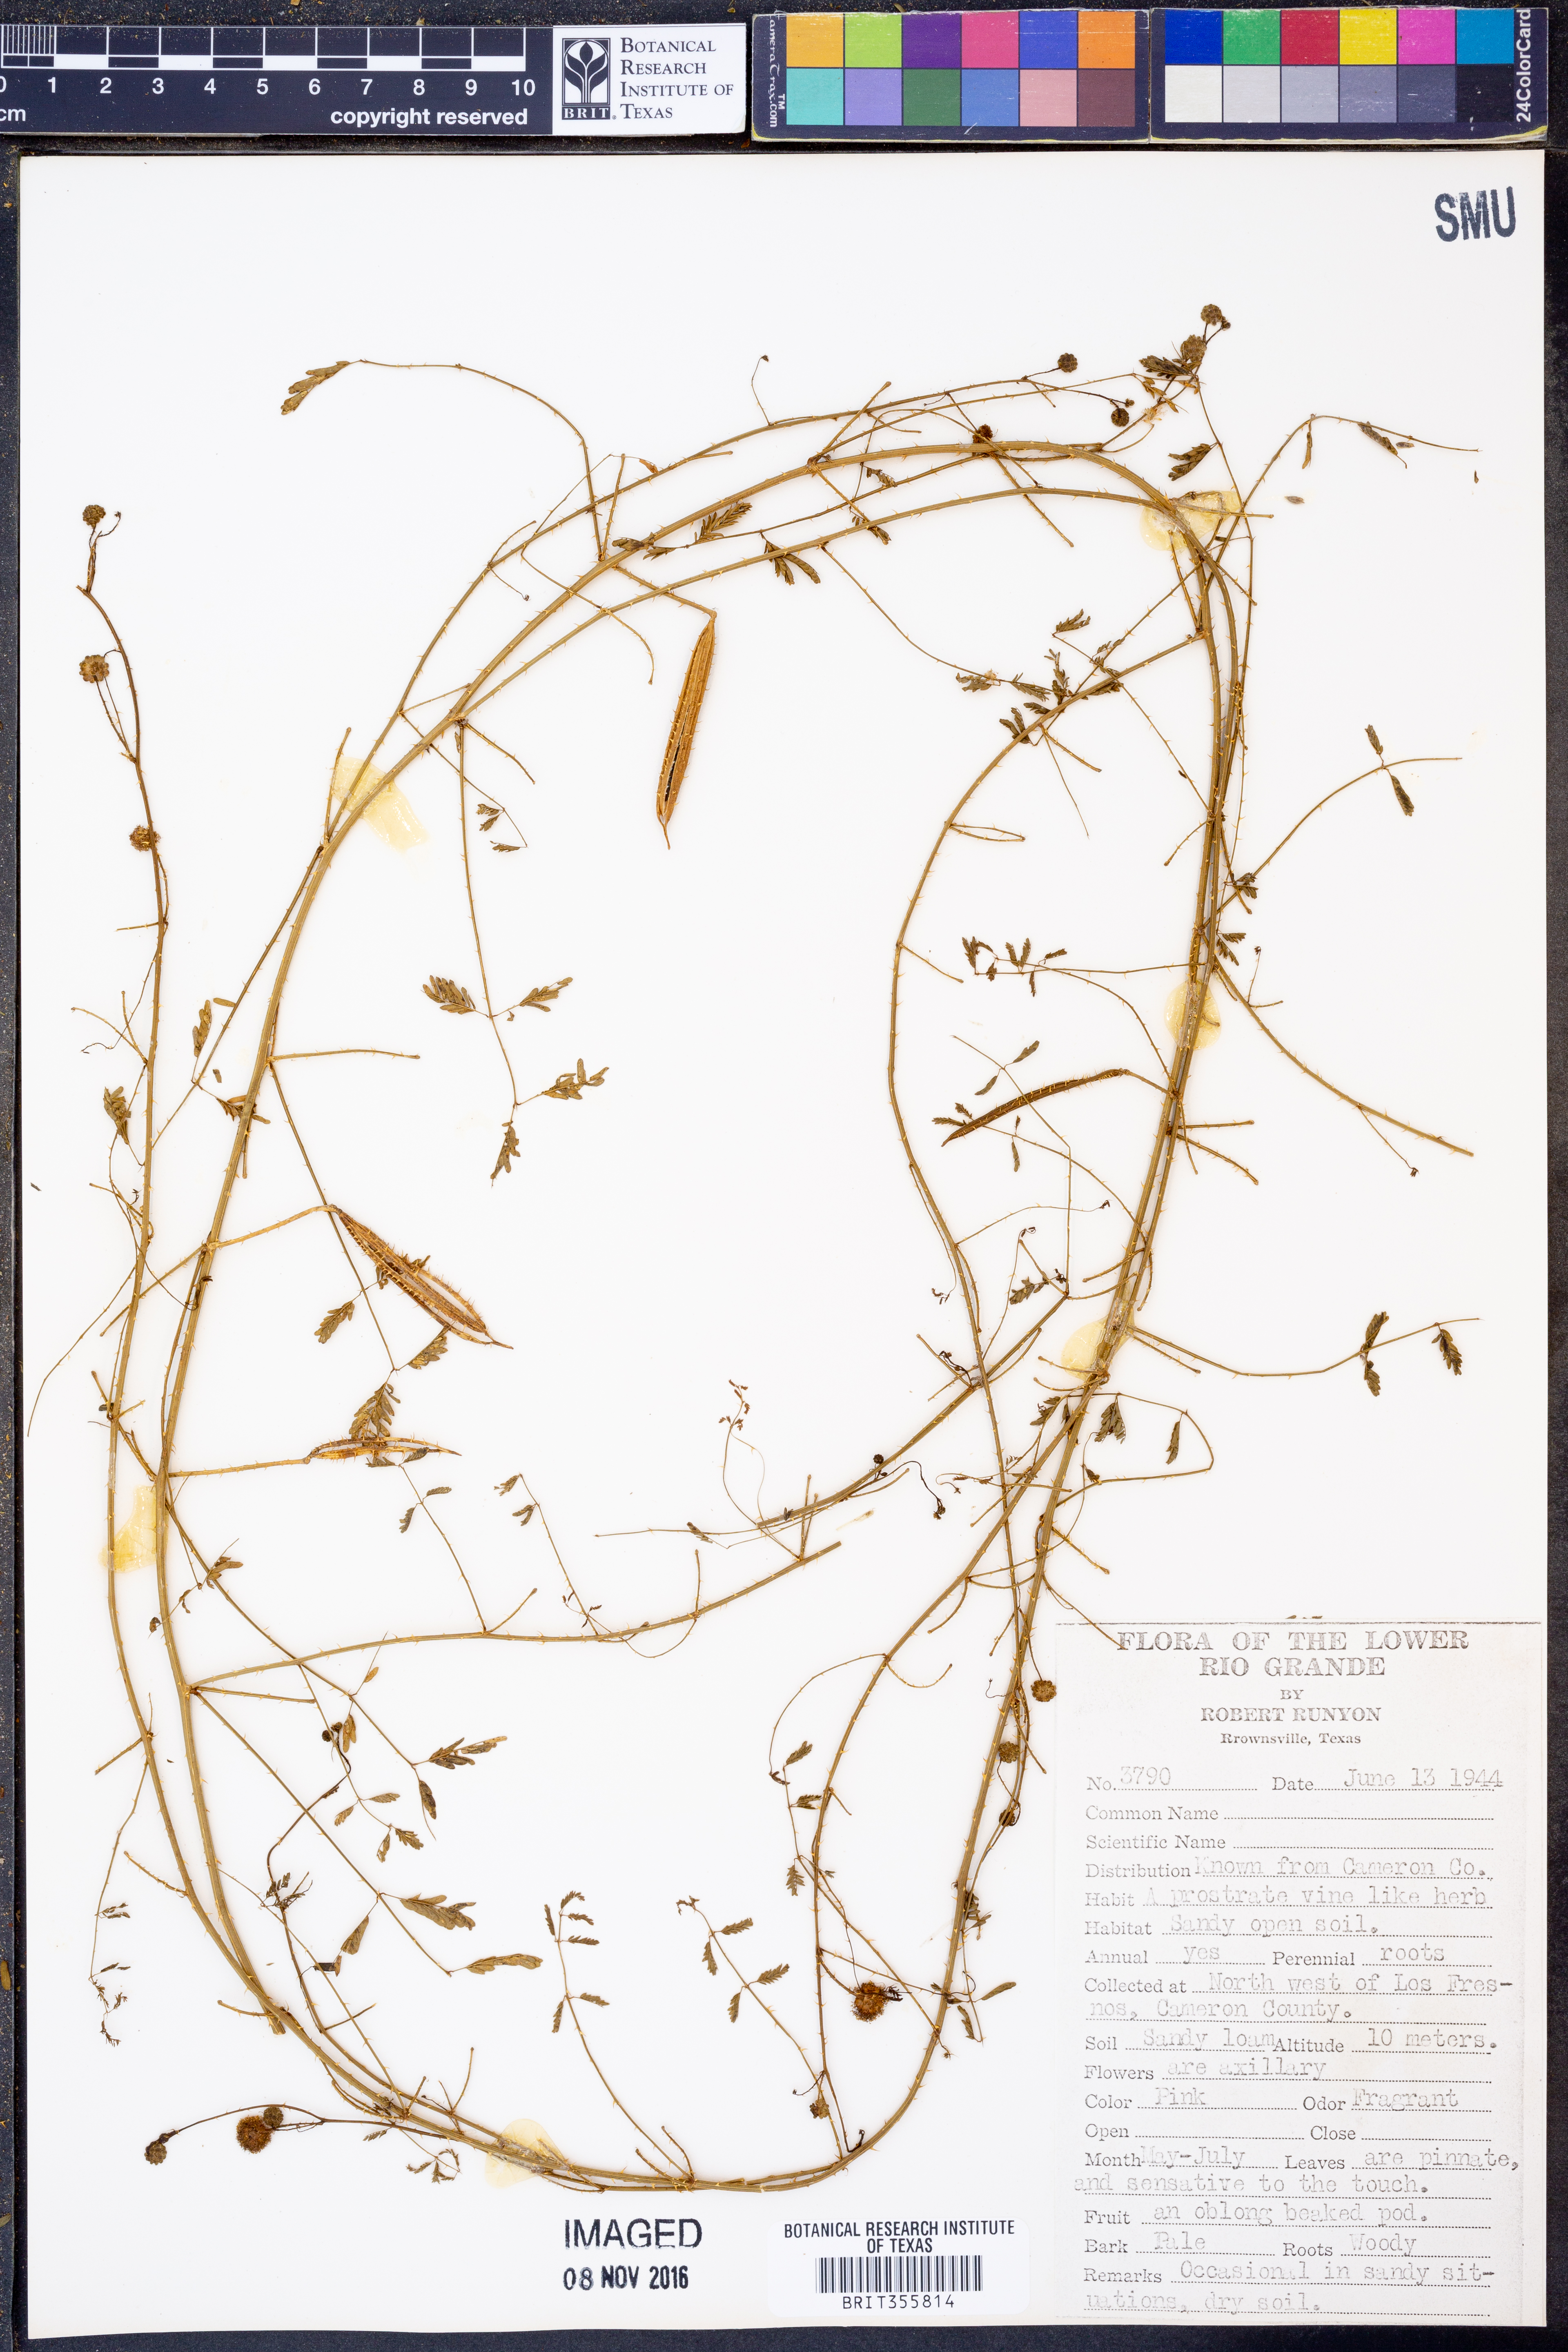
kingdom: Plantae
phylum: Tracheophyta
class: Magnoliopsida
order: Fabales
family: Fabaceae
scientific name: Fabaceae
